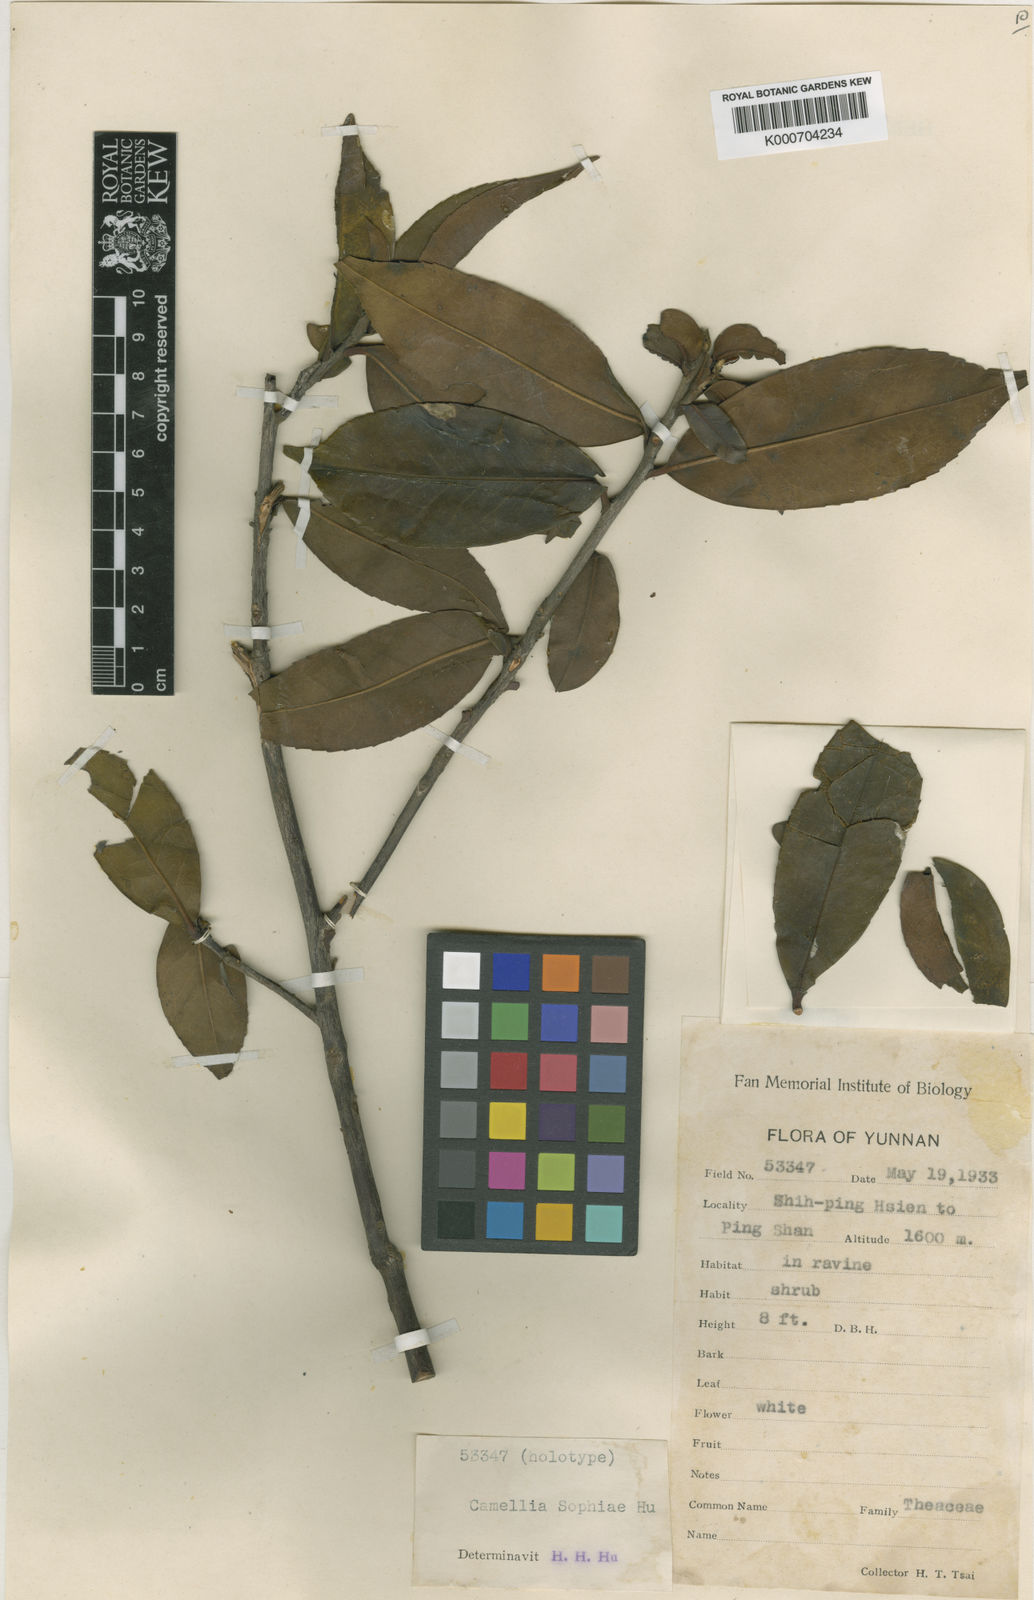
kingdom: Plantae
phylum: Tracheophyta
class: Magnoliopsida
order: Ericales
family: Theaceae
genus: Pyrenaria
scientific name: Pyrenaria sophiae
